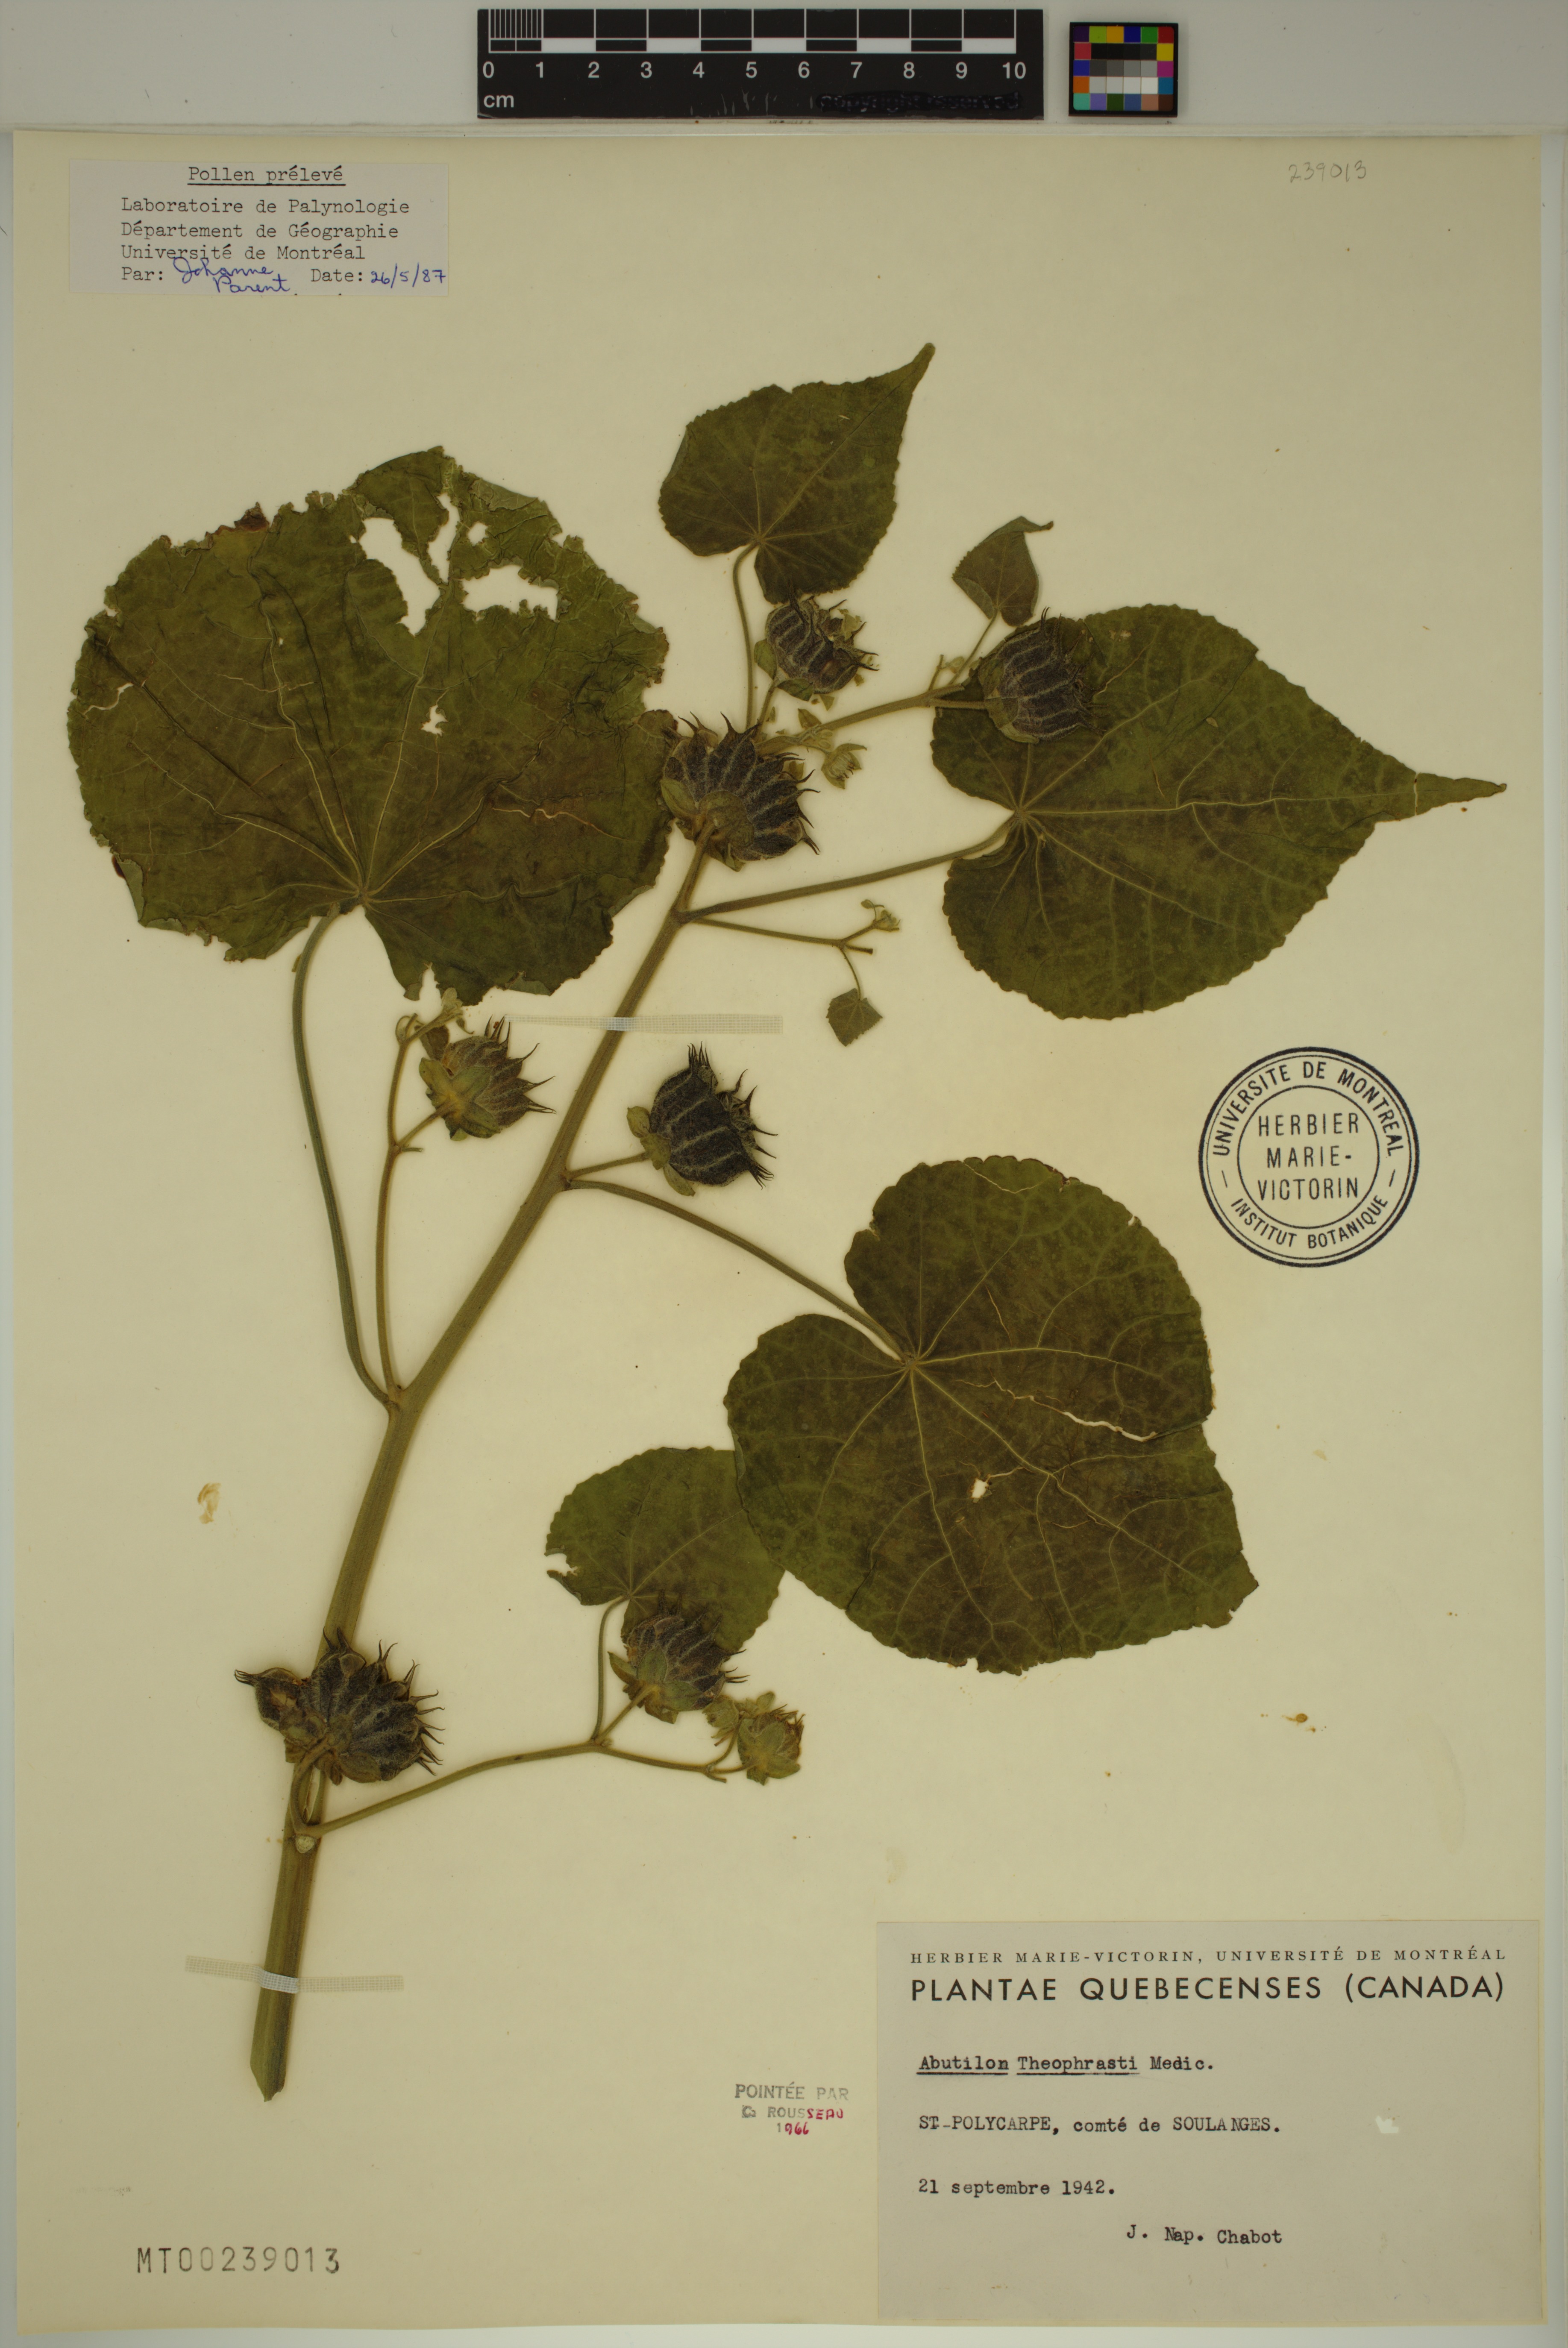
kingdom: Plantae
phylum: Tracheophyta
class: Magnoliopsida
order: Malvales
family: Malvaceae
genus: Abutilon
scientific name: Abutilon theophrasti
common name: Velvetleaf
